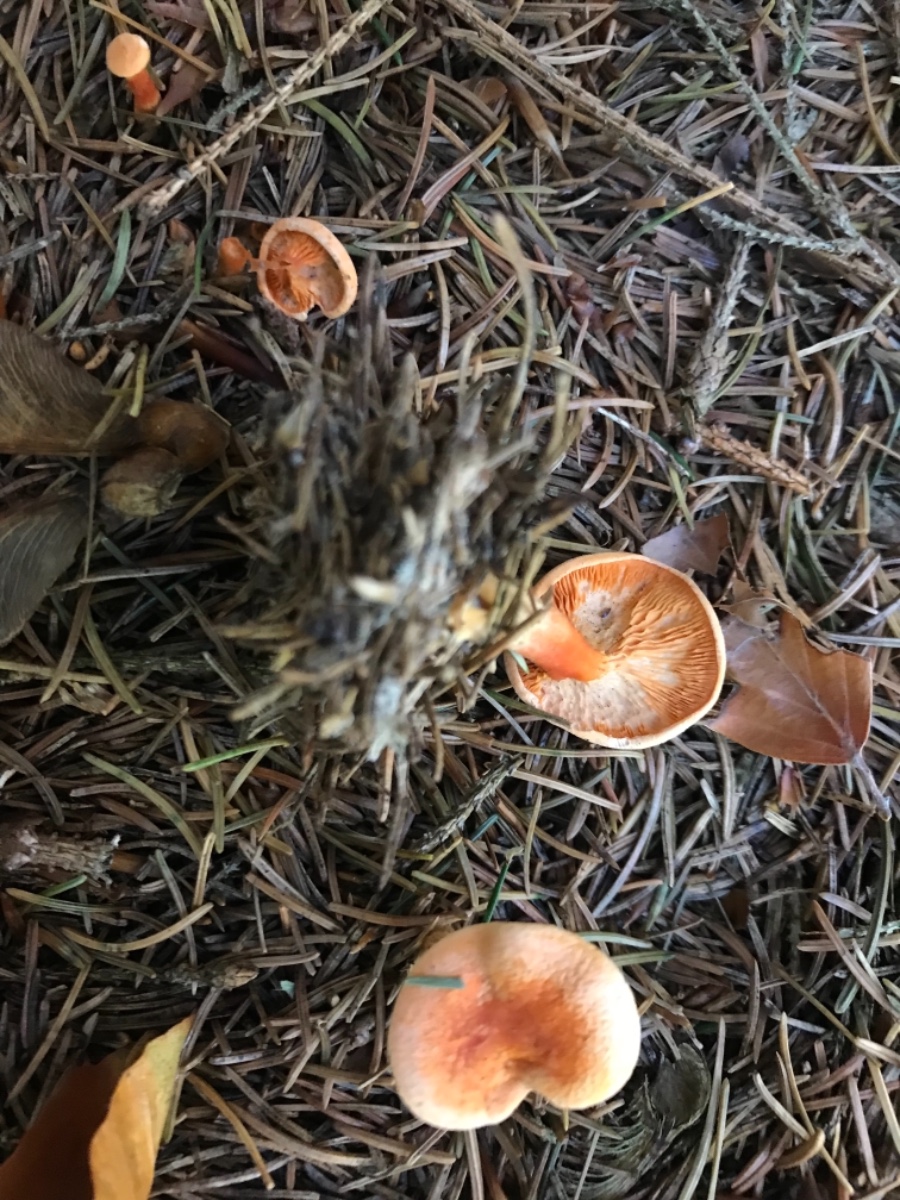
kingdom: Fungi
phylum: Basidiomycota
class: Agaricomycetes
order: Boletales
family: Hygrophoropsidaceae
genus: Hygrophoropsis
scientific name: Hygrophoropsis aurantiaca
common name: almindelig orangekantarel
